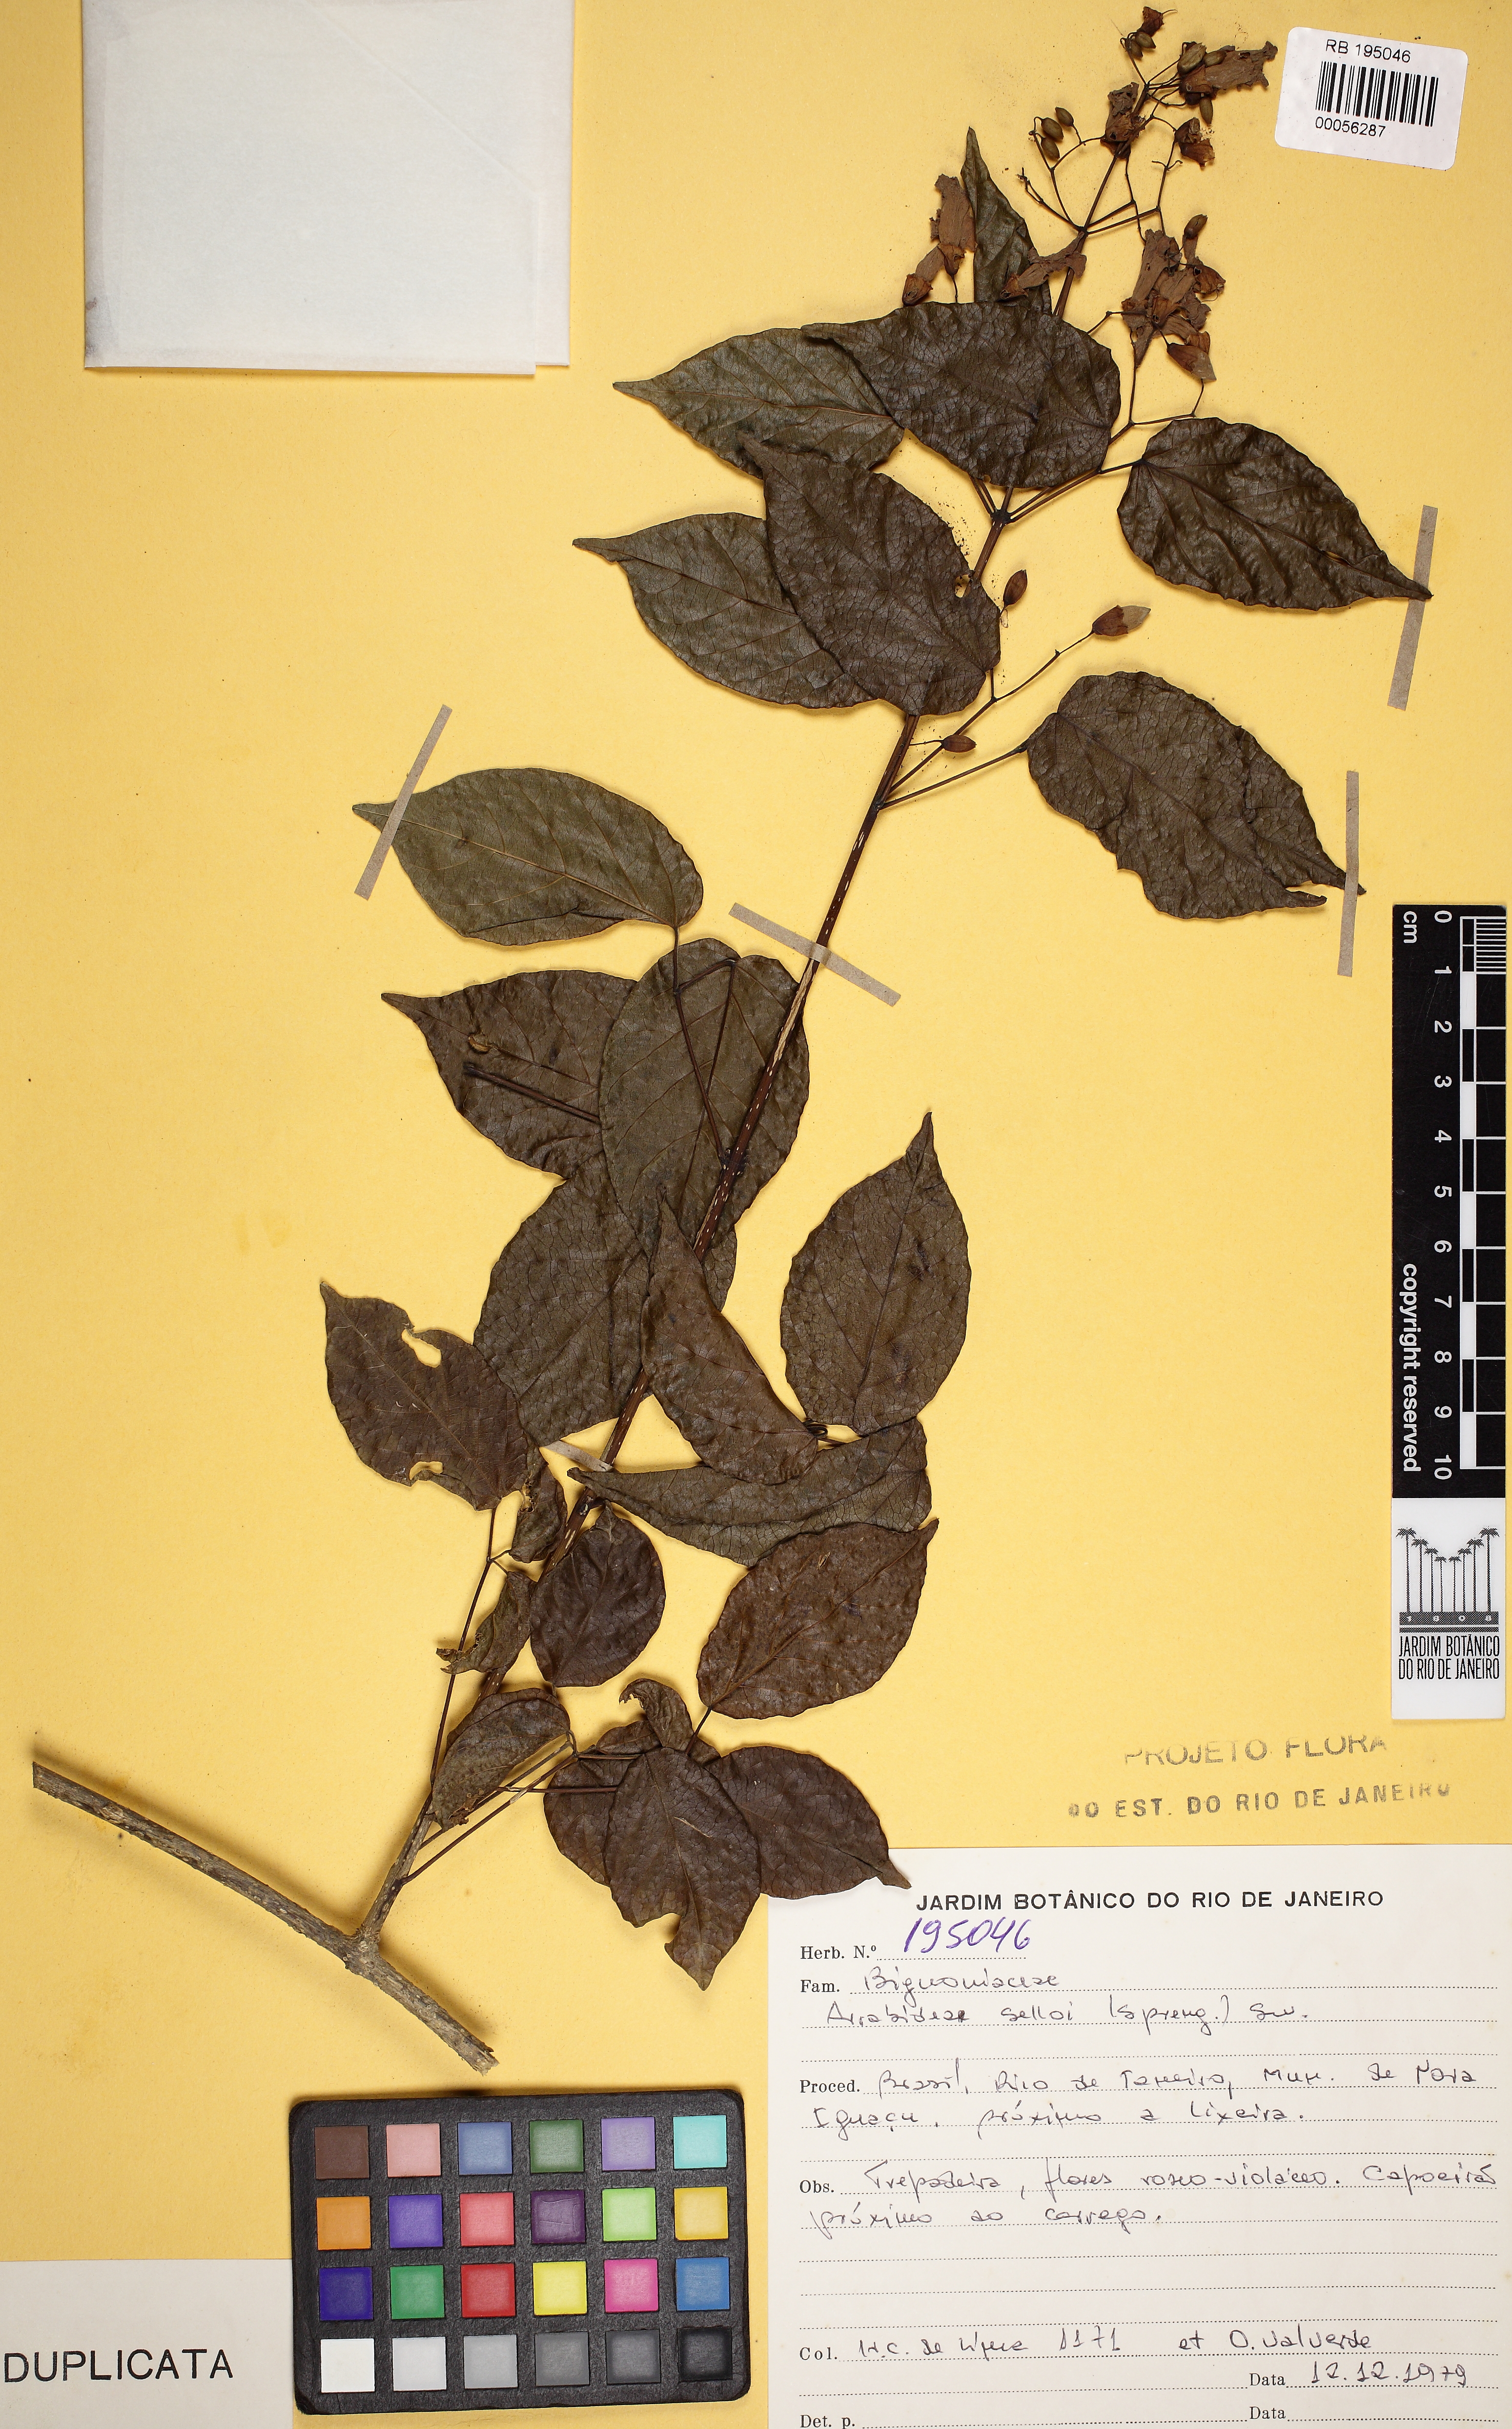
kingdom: Plantae
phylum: Tracheophyta
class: Magnoliopsida
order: Lamiales
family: Bignoniaceae
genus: Tanaecium
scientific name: Tanaecium selloi
